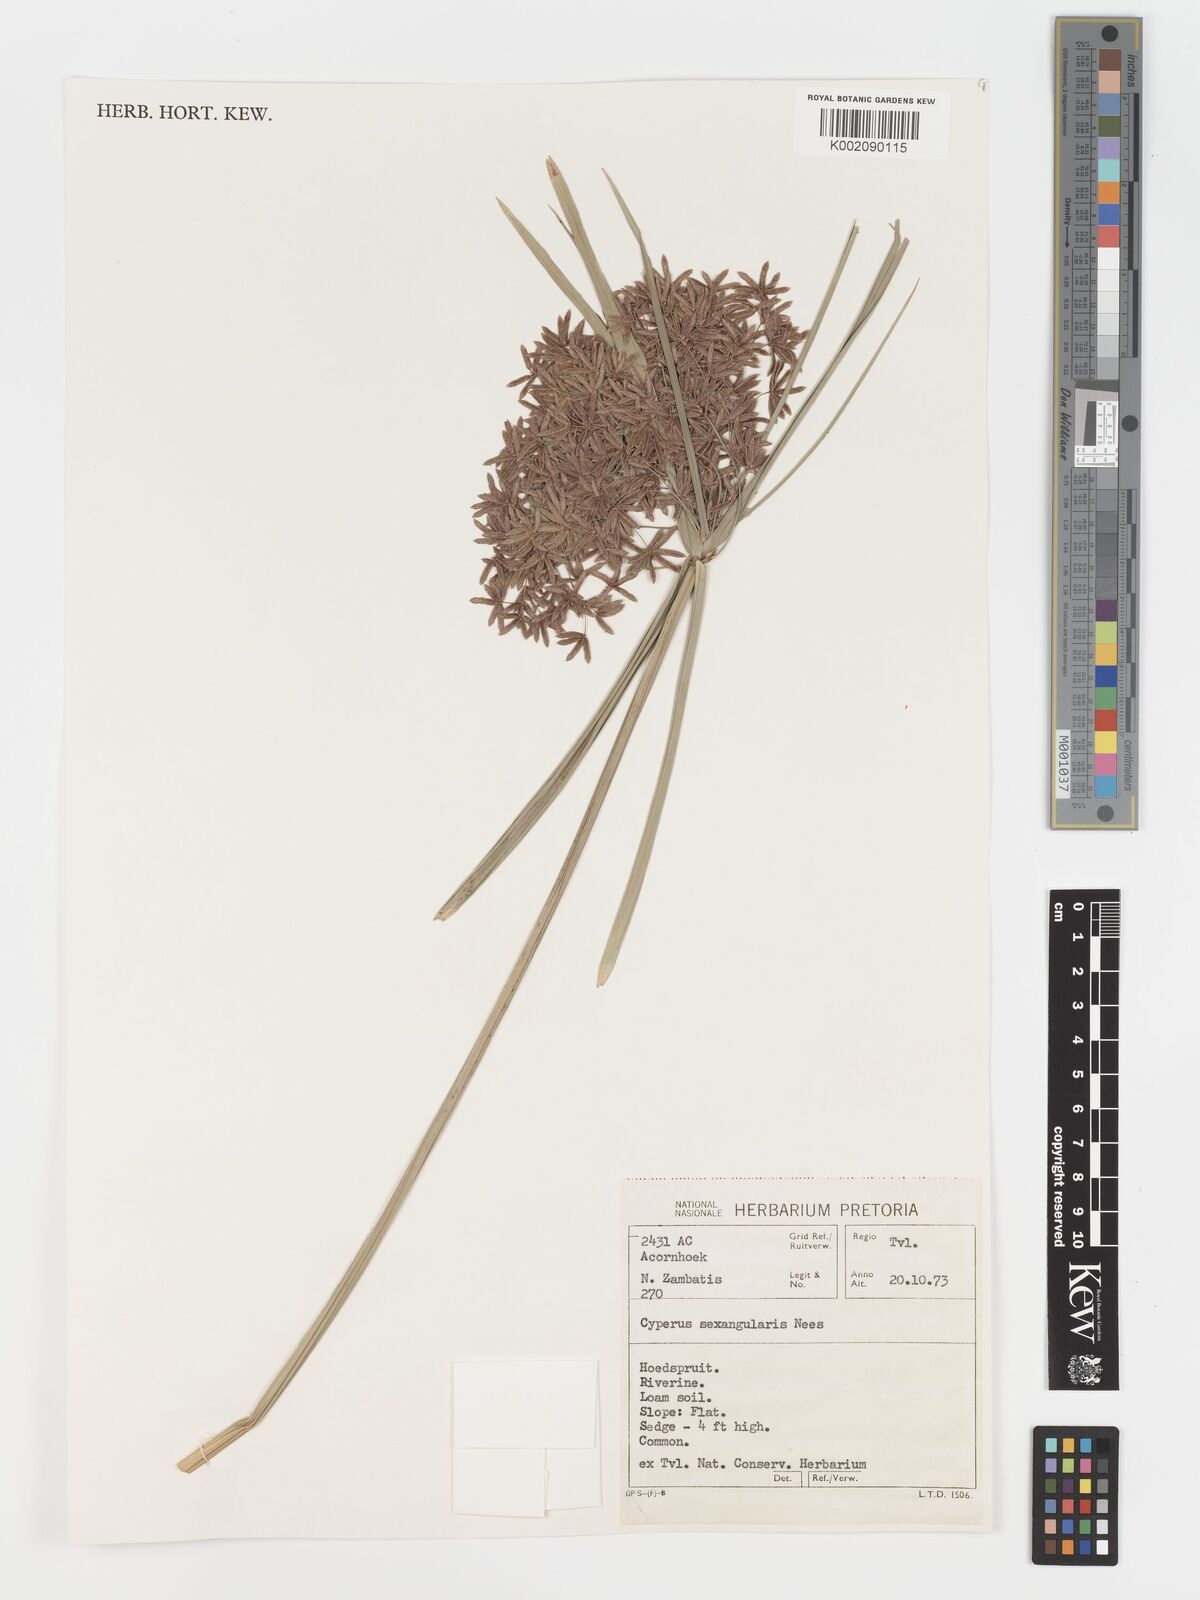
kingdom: Plantae
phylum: Tracheophyta
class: Liliopsida
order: Poales
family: Cyperaceae
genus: Cyperus
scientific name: Cyperus sexangularis
